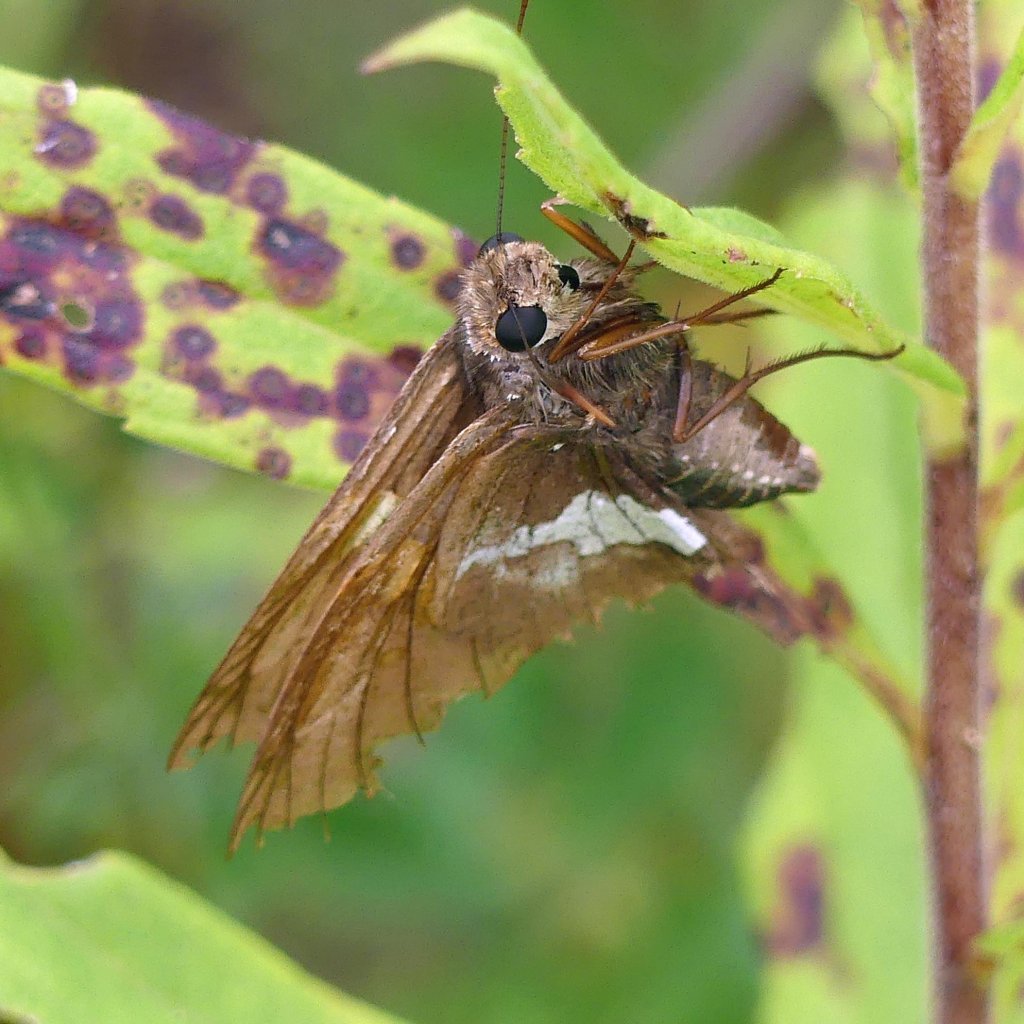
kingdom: Animalia
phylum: Arthropoda
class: Insecta
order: Lepidoptera
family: Hesperiidae
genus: Epargyreus
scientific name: Epargyreus clarus
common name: Silver-spotted Skipper
